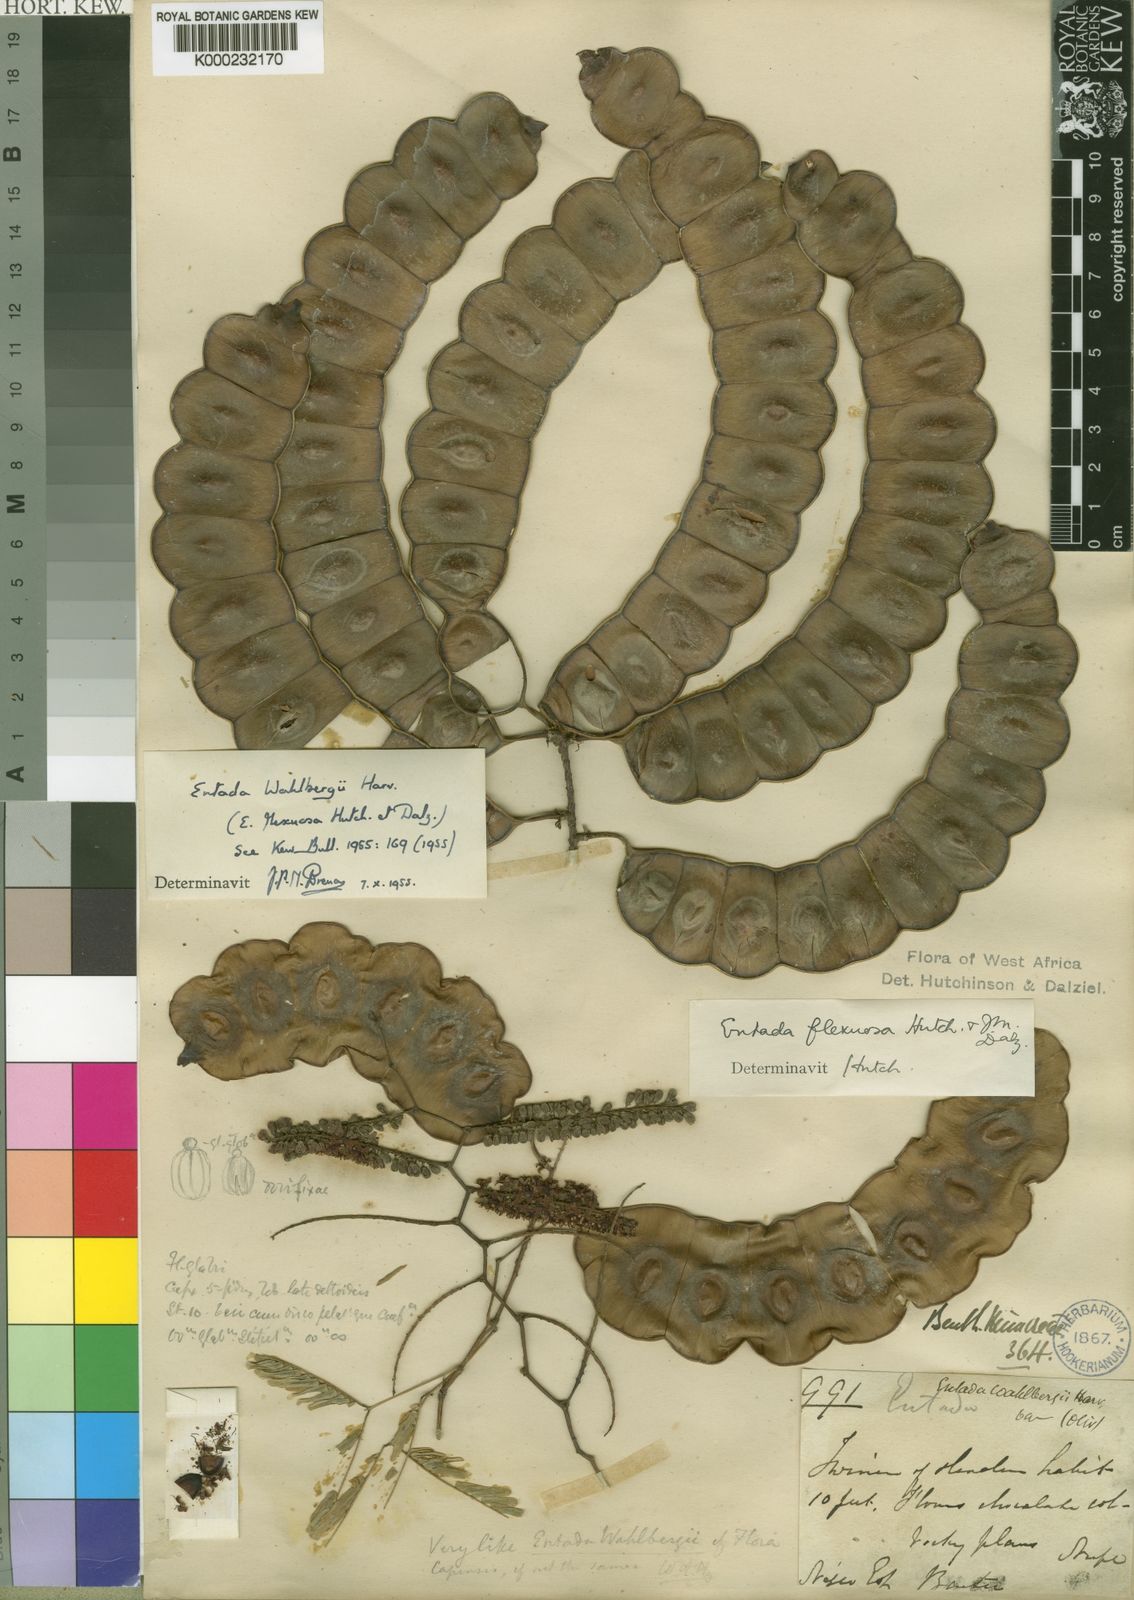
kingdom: Plantae
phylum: Tracheophyta
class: Magnoliopsida
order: Fabales
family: Fabaceae
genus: Entada
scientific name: Entada wahlbergii
